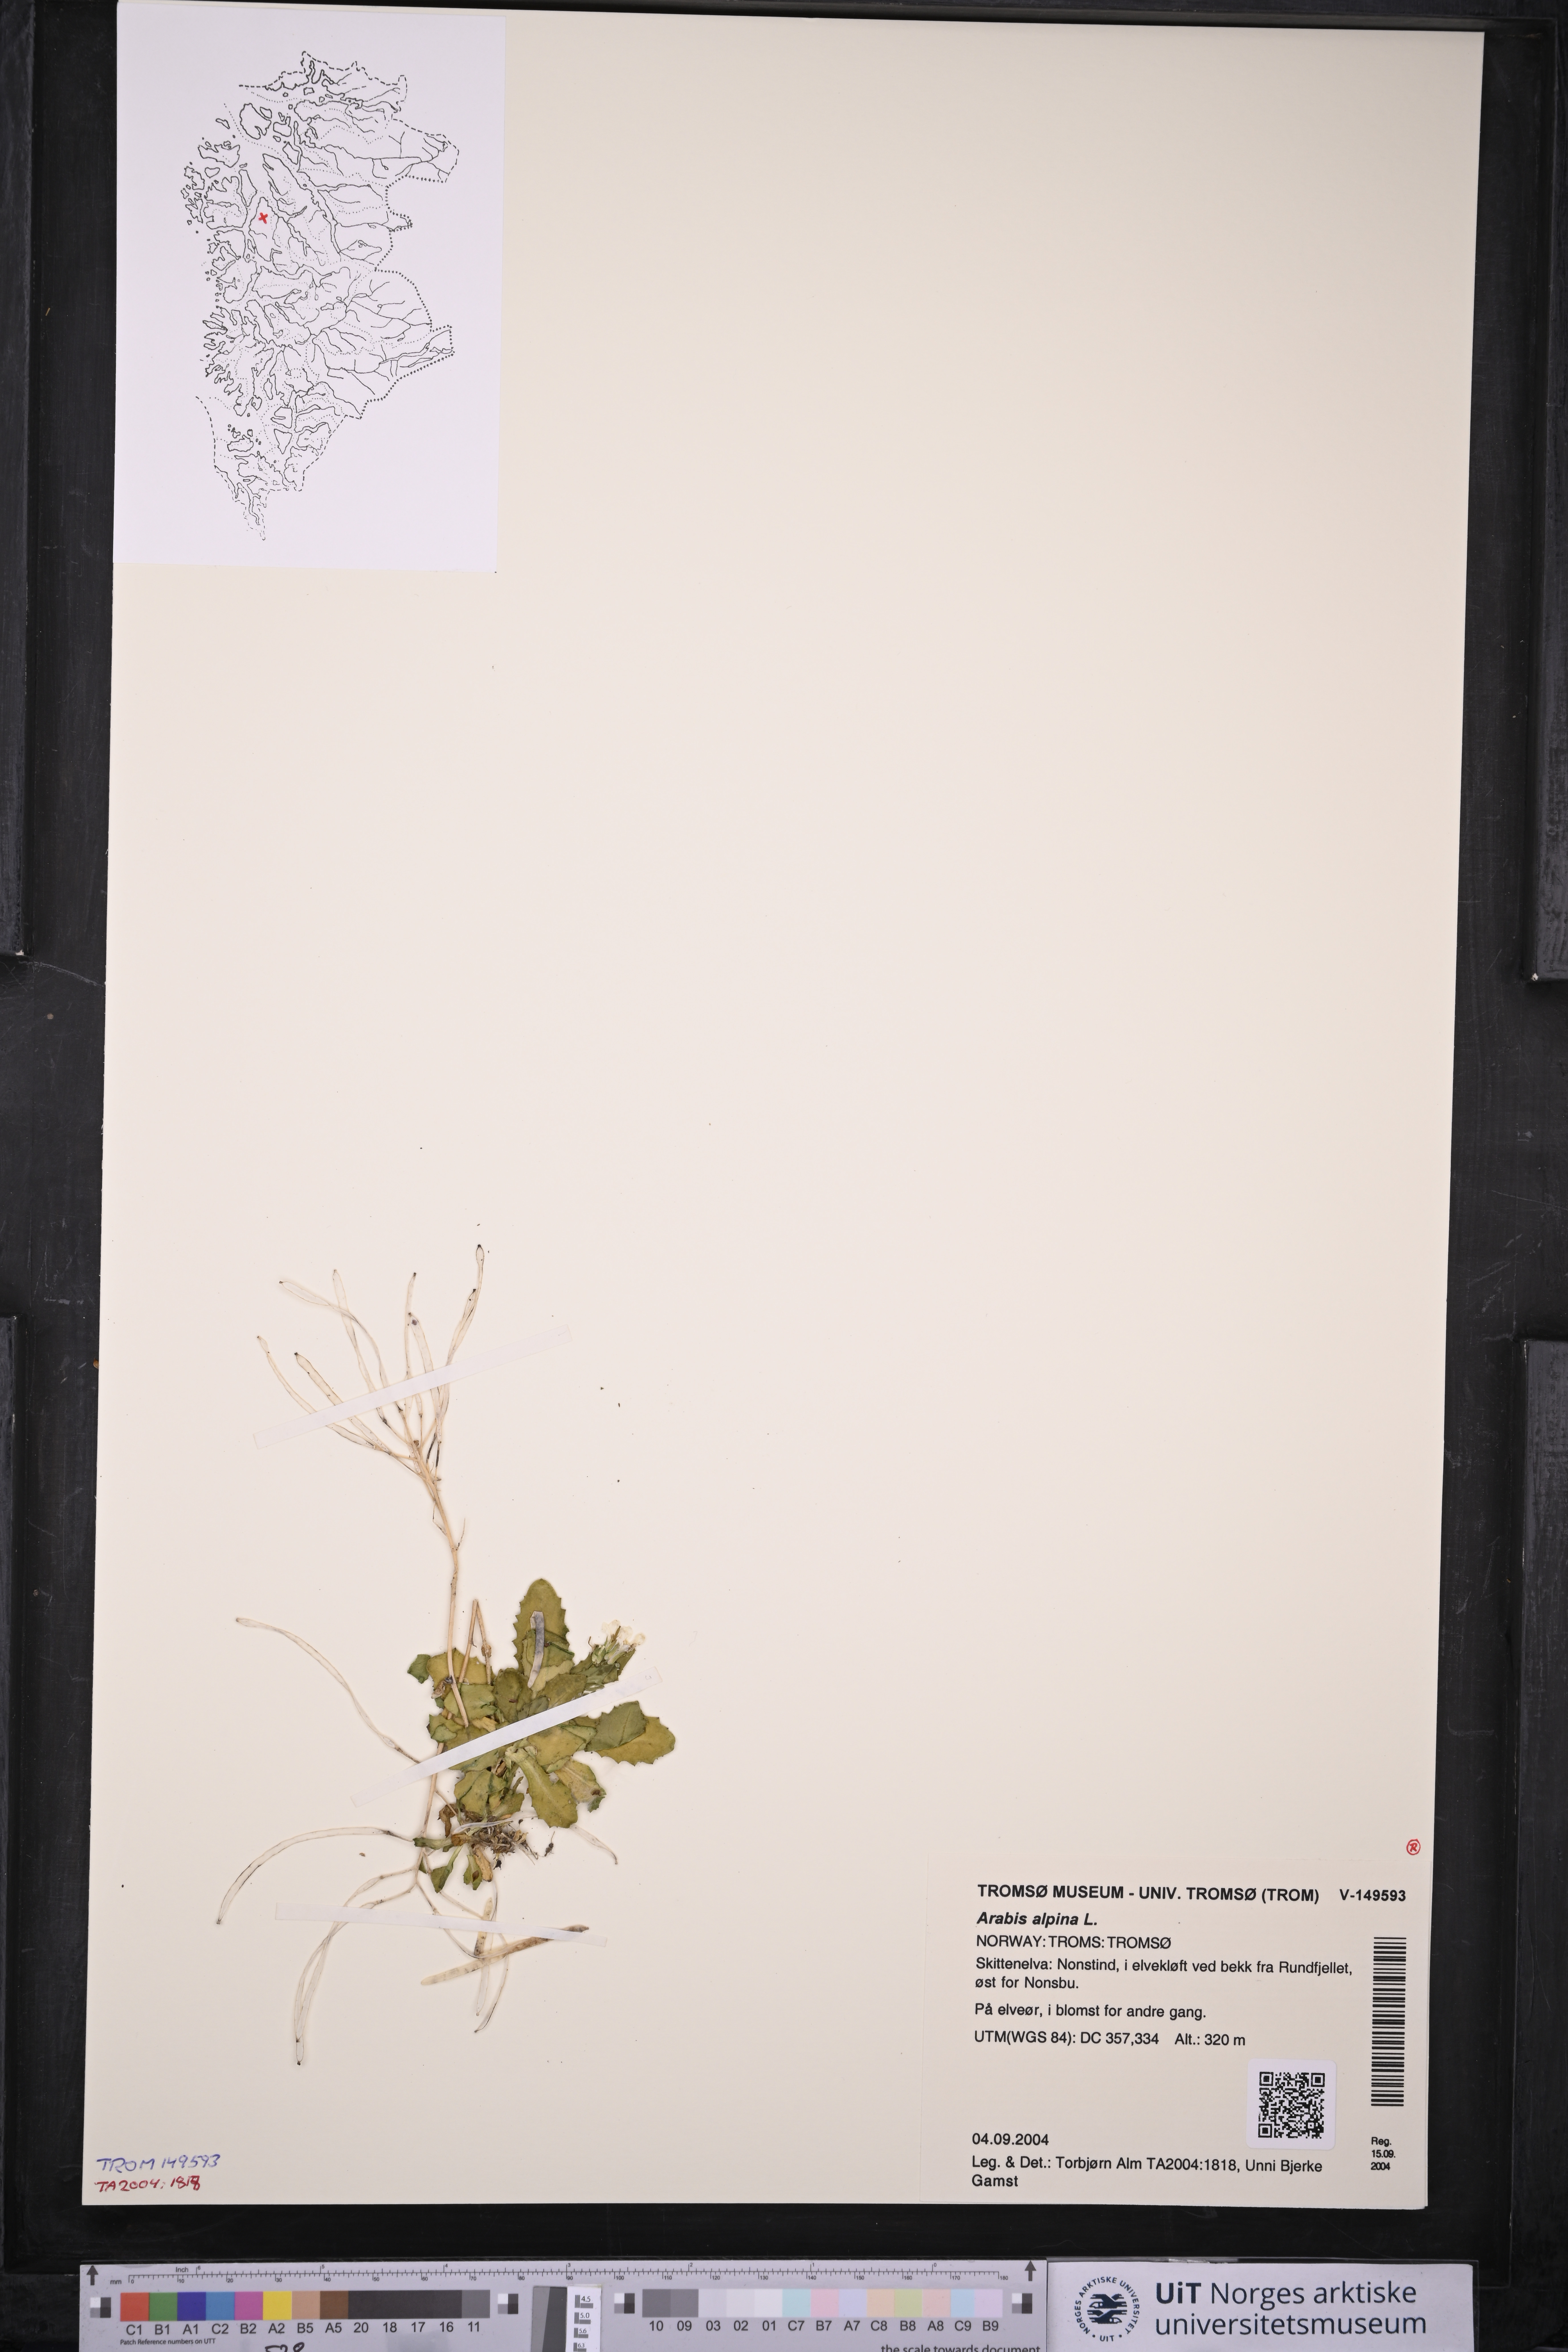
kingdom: Plantae
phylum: Tracheophyta
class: Magnoliopsida
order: Brassicales
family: Brassicaceae
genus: Arabis
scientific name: Arabis alpina
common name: Alpine rock-cress
